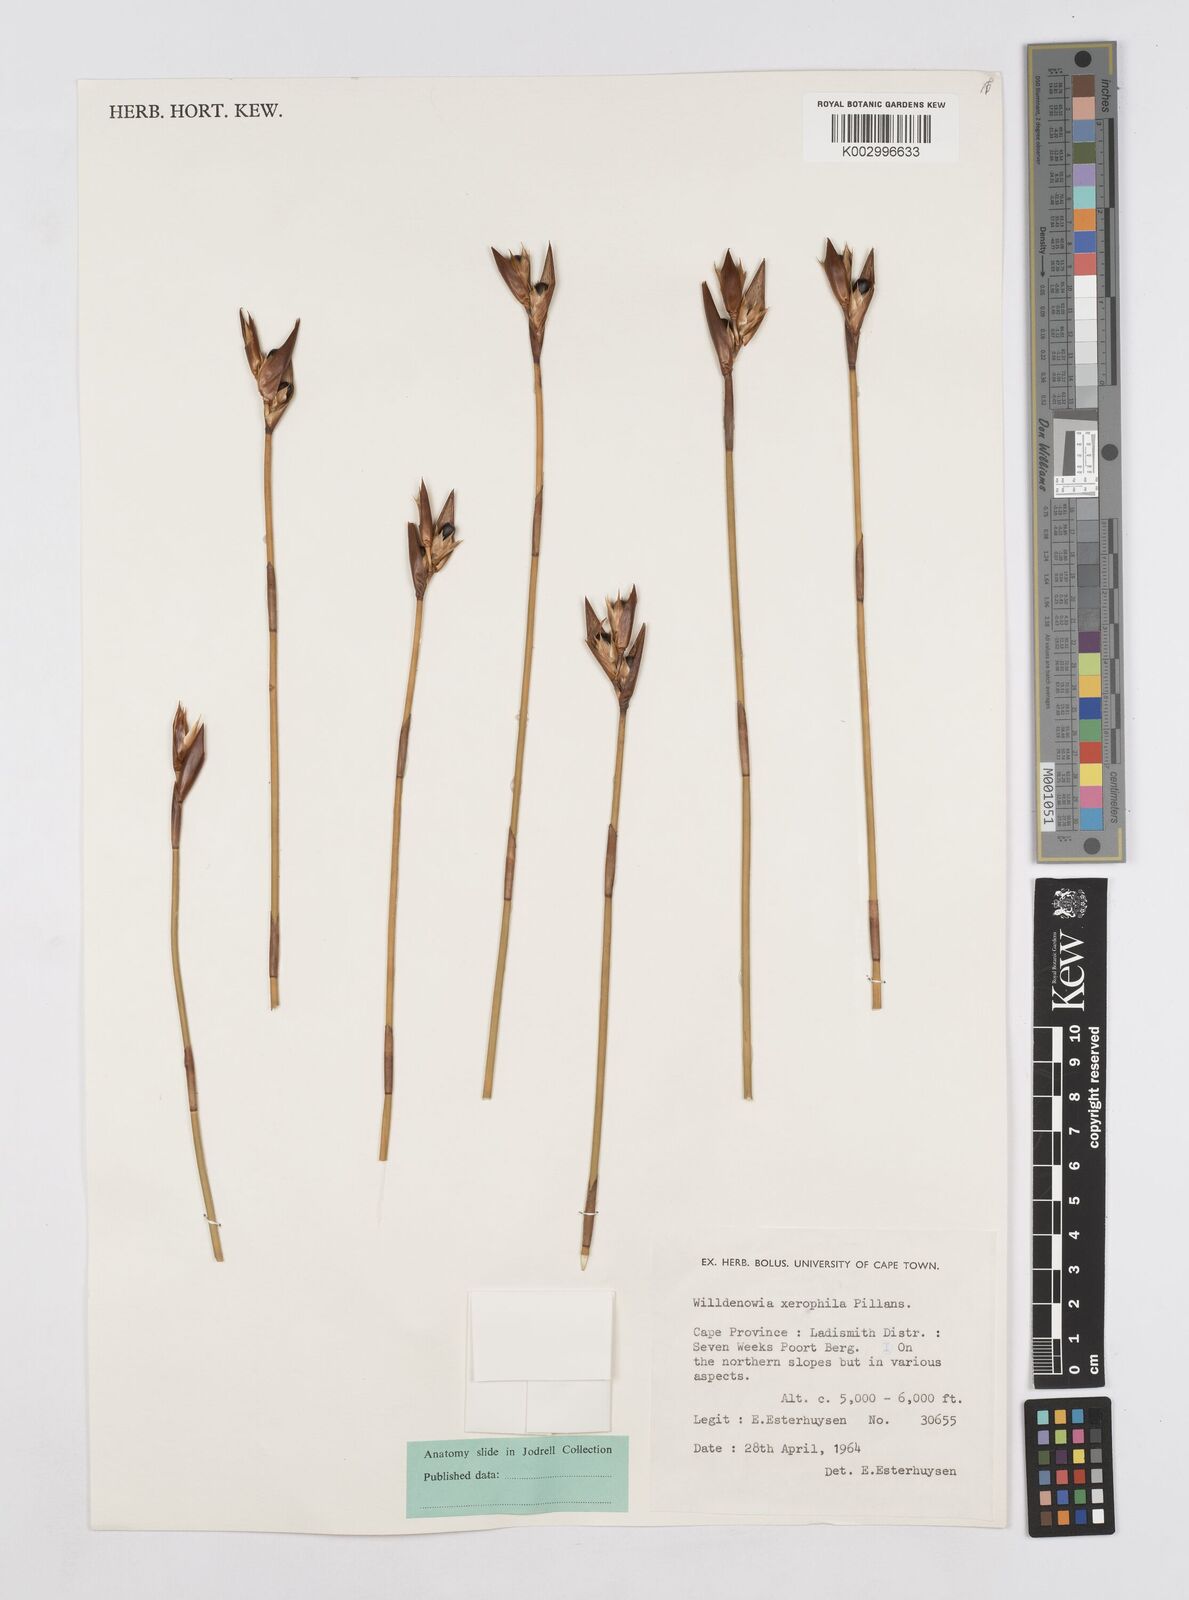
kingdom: Plantae
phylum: Tracheophyta
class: Liliopsida
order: Poales
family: Restionaceae
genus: Ceratocaryum
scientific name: Ceratocaryum xerophilum
